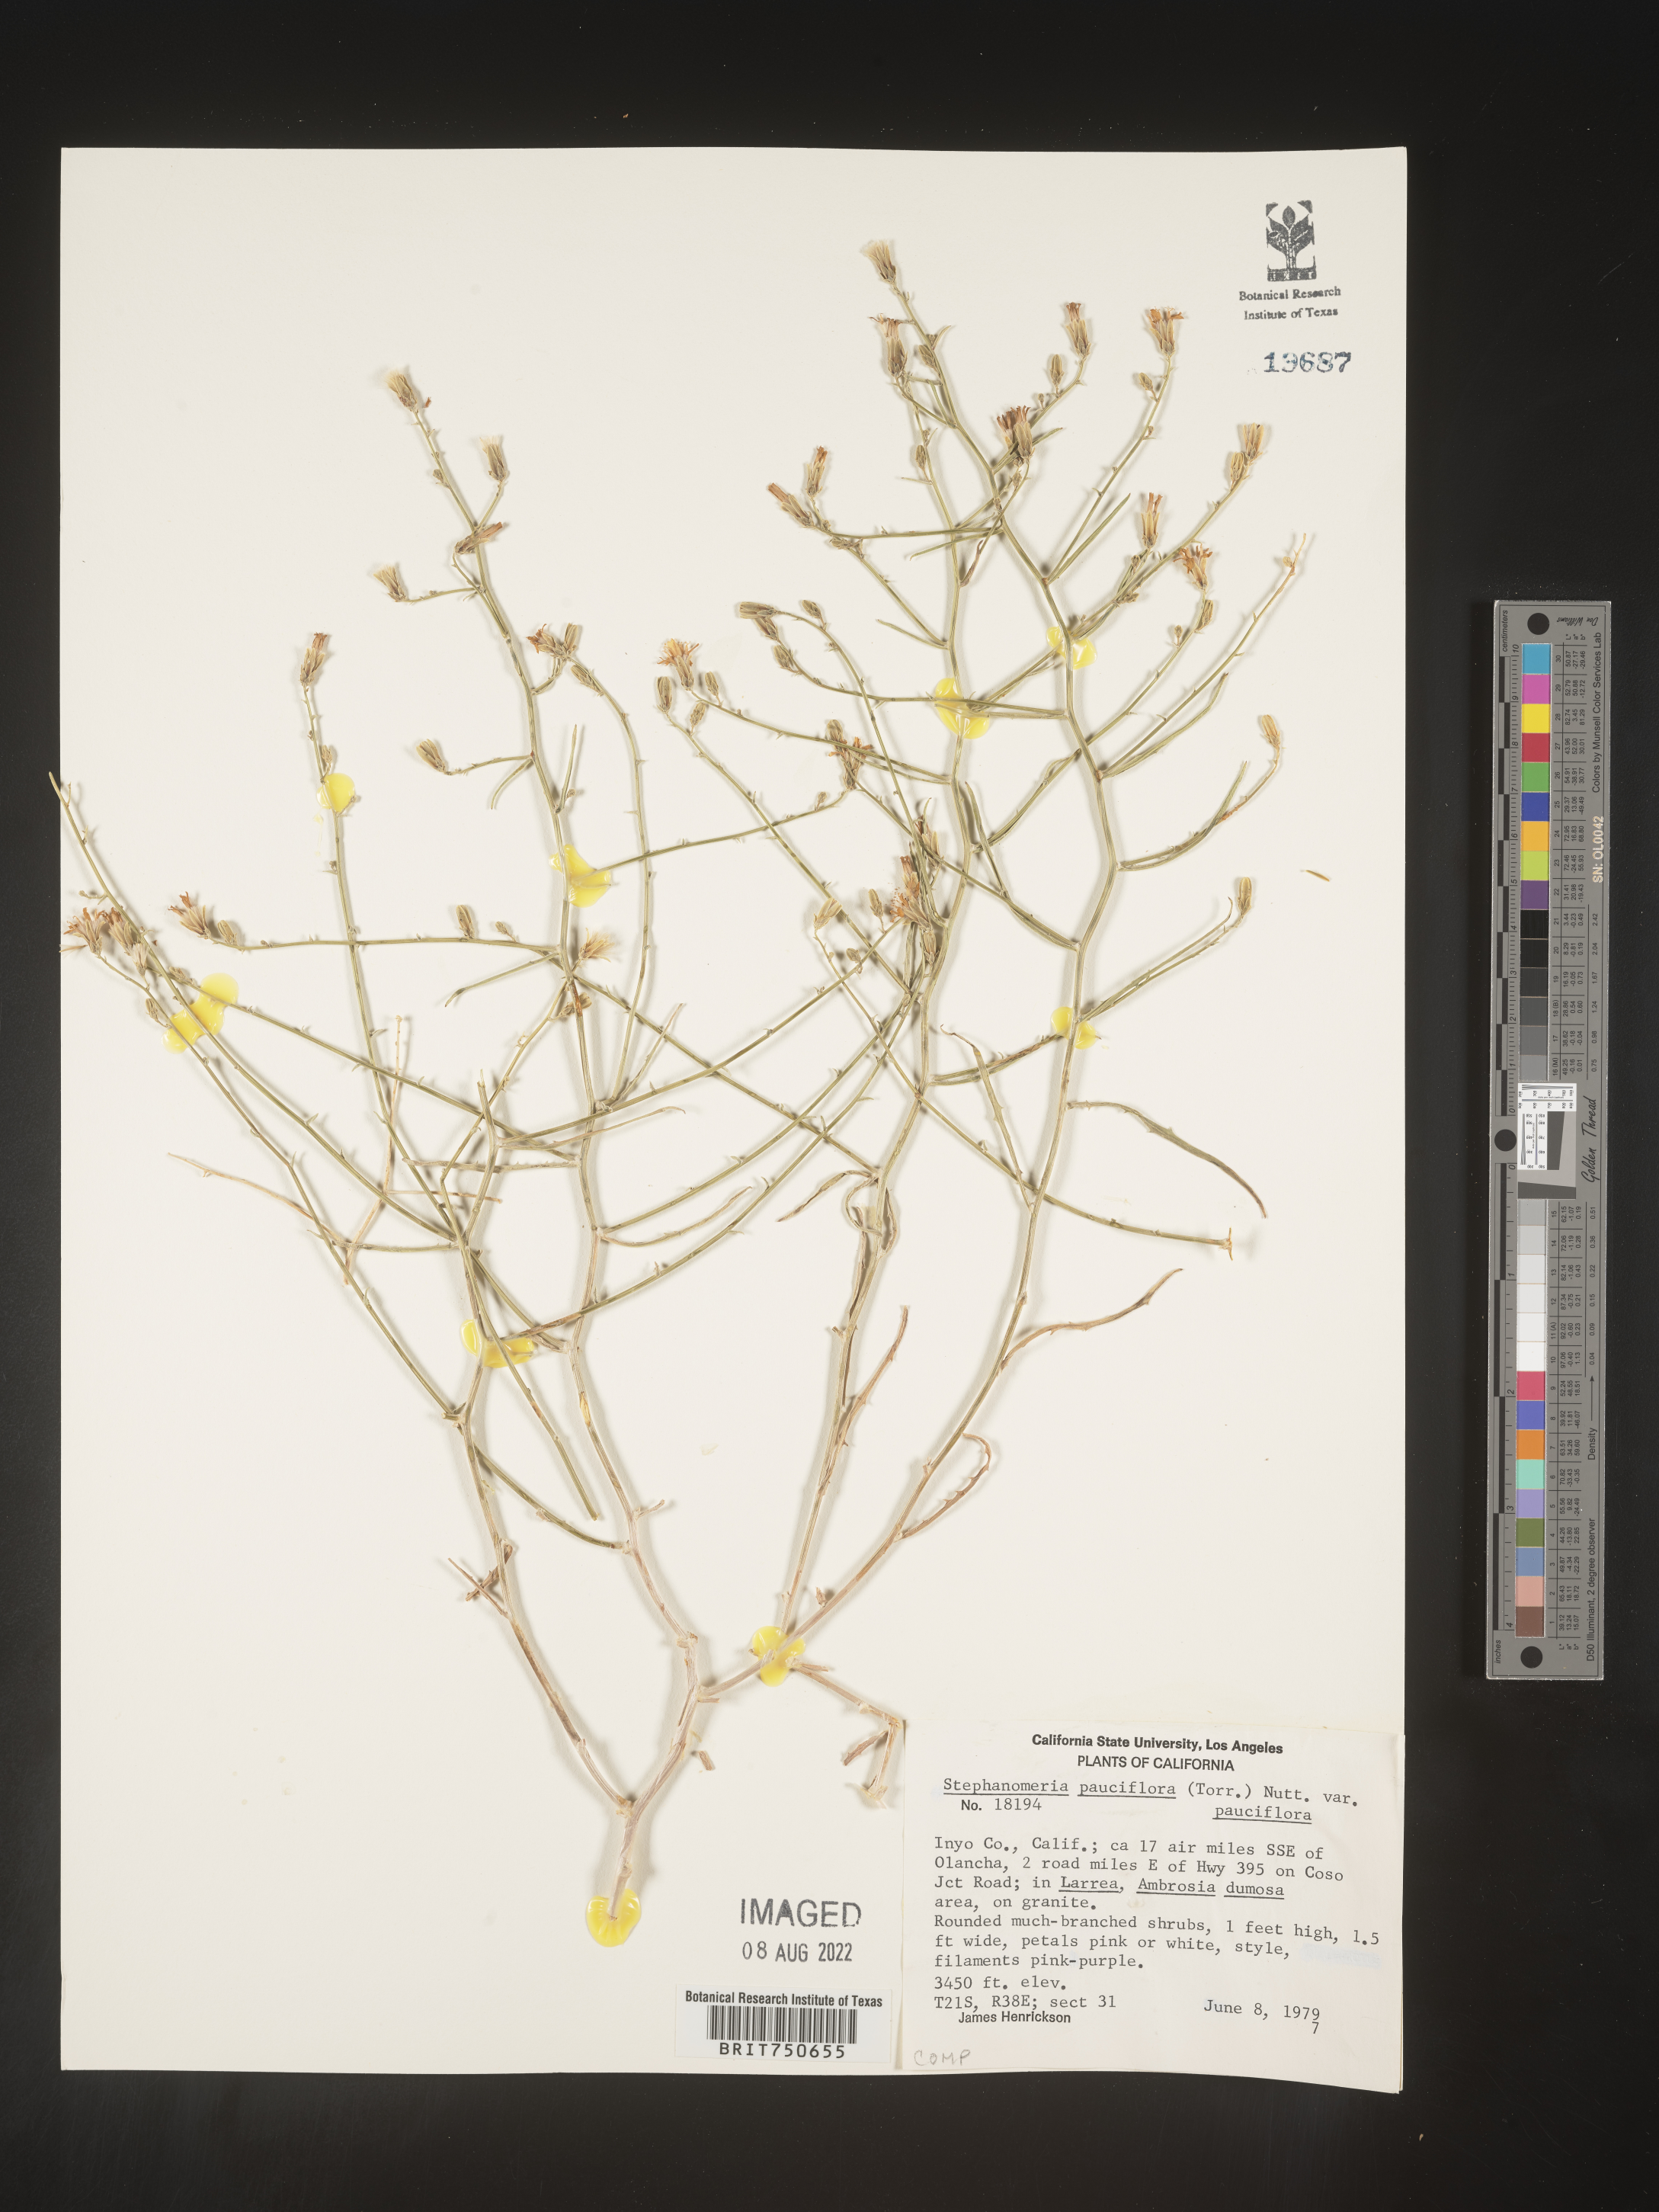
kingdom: Plantae
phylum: Tracheophyta
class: Magnoliopsida
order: Asterales
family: Asteraceae
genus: Stephanomeria
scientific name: Stephanomeria pauciflora
